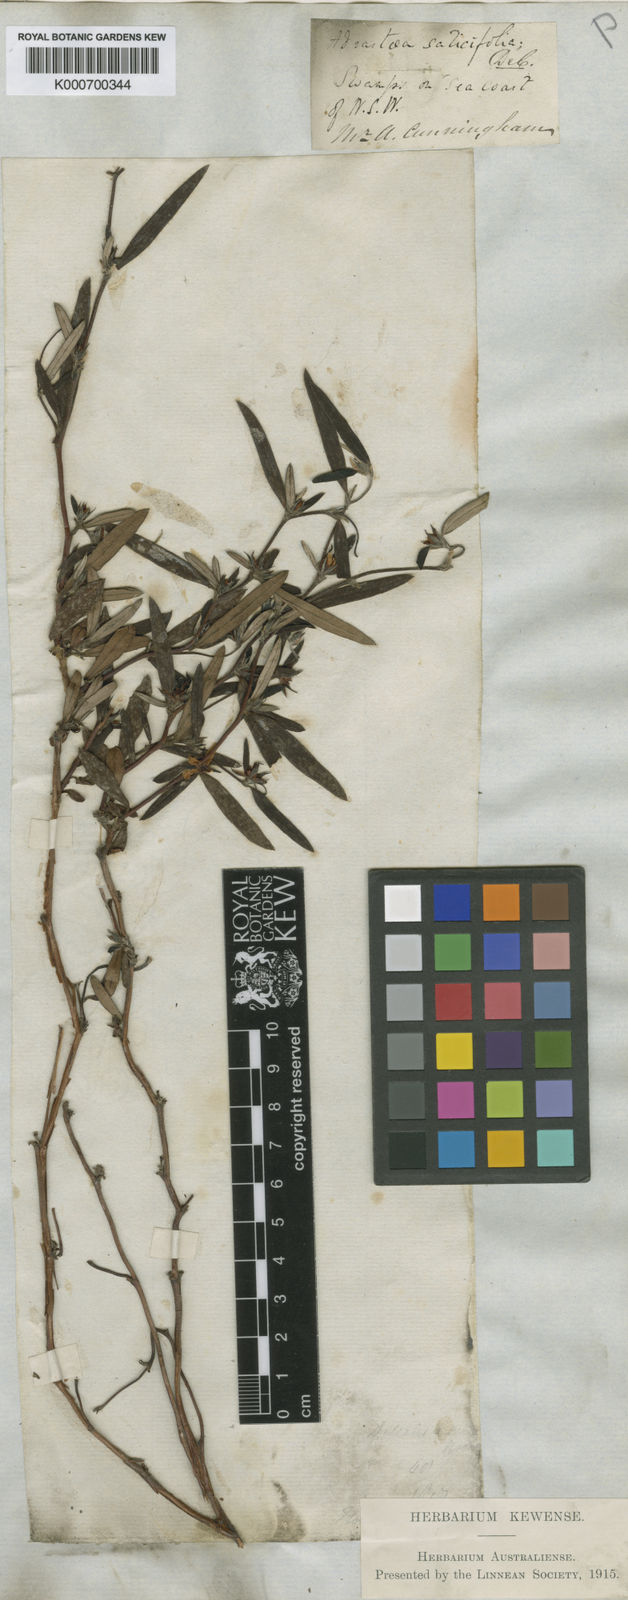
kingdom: Plantae
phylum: Tracheophyta
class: Magnoliopsida
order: Dilleniales
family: Dilleniaceae
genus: Hibbertia
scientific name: Hibbertia salicifolia
